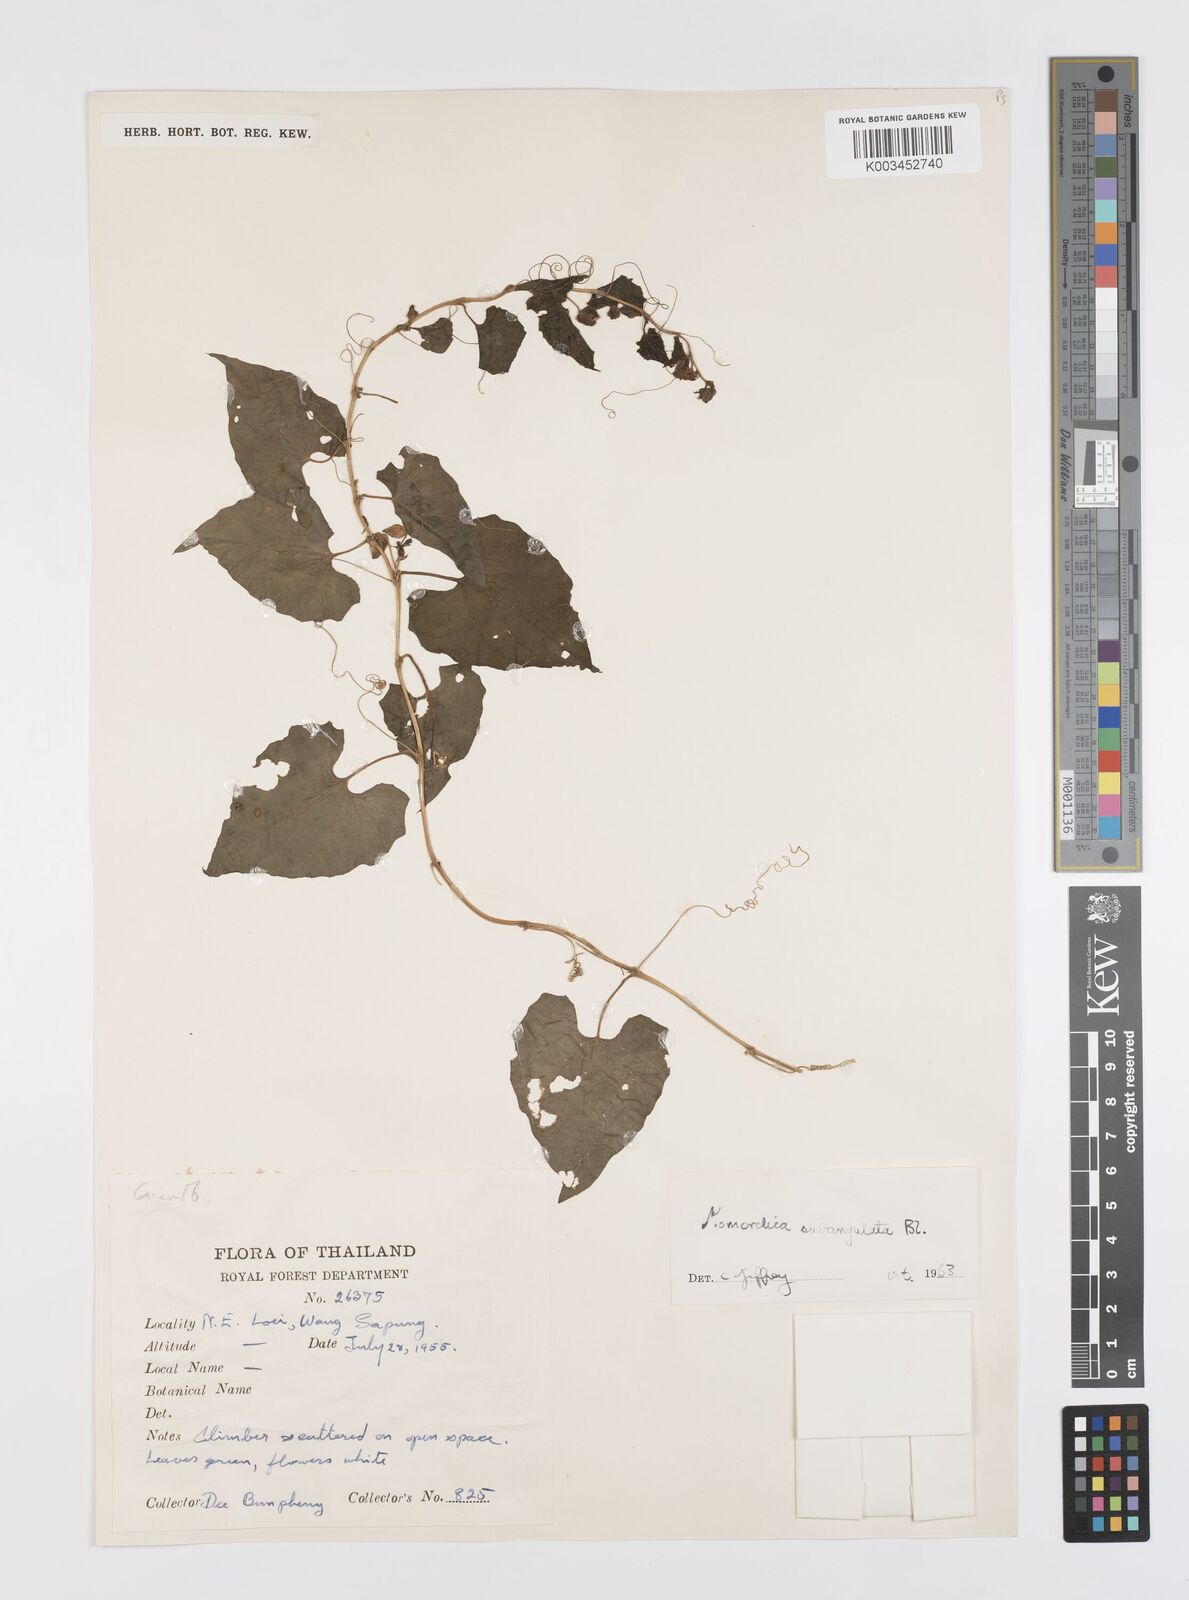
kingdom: Plantae
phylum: Tracheophyta
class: Magnoliopsida
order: Cucurbitales
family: Cucurbitaceae
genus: Momordica
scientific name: Momordica subangulata
